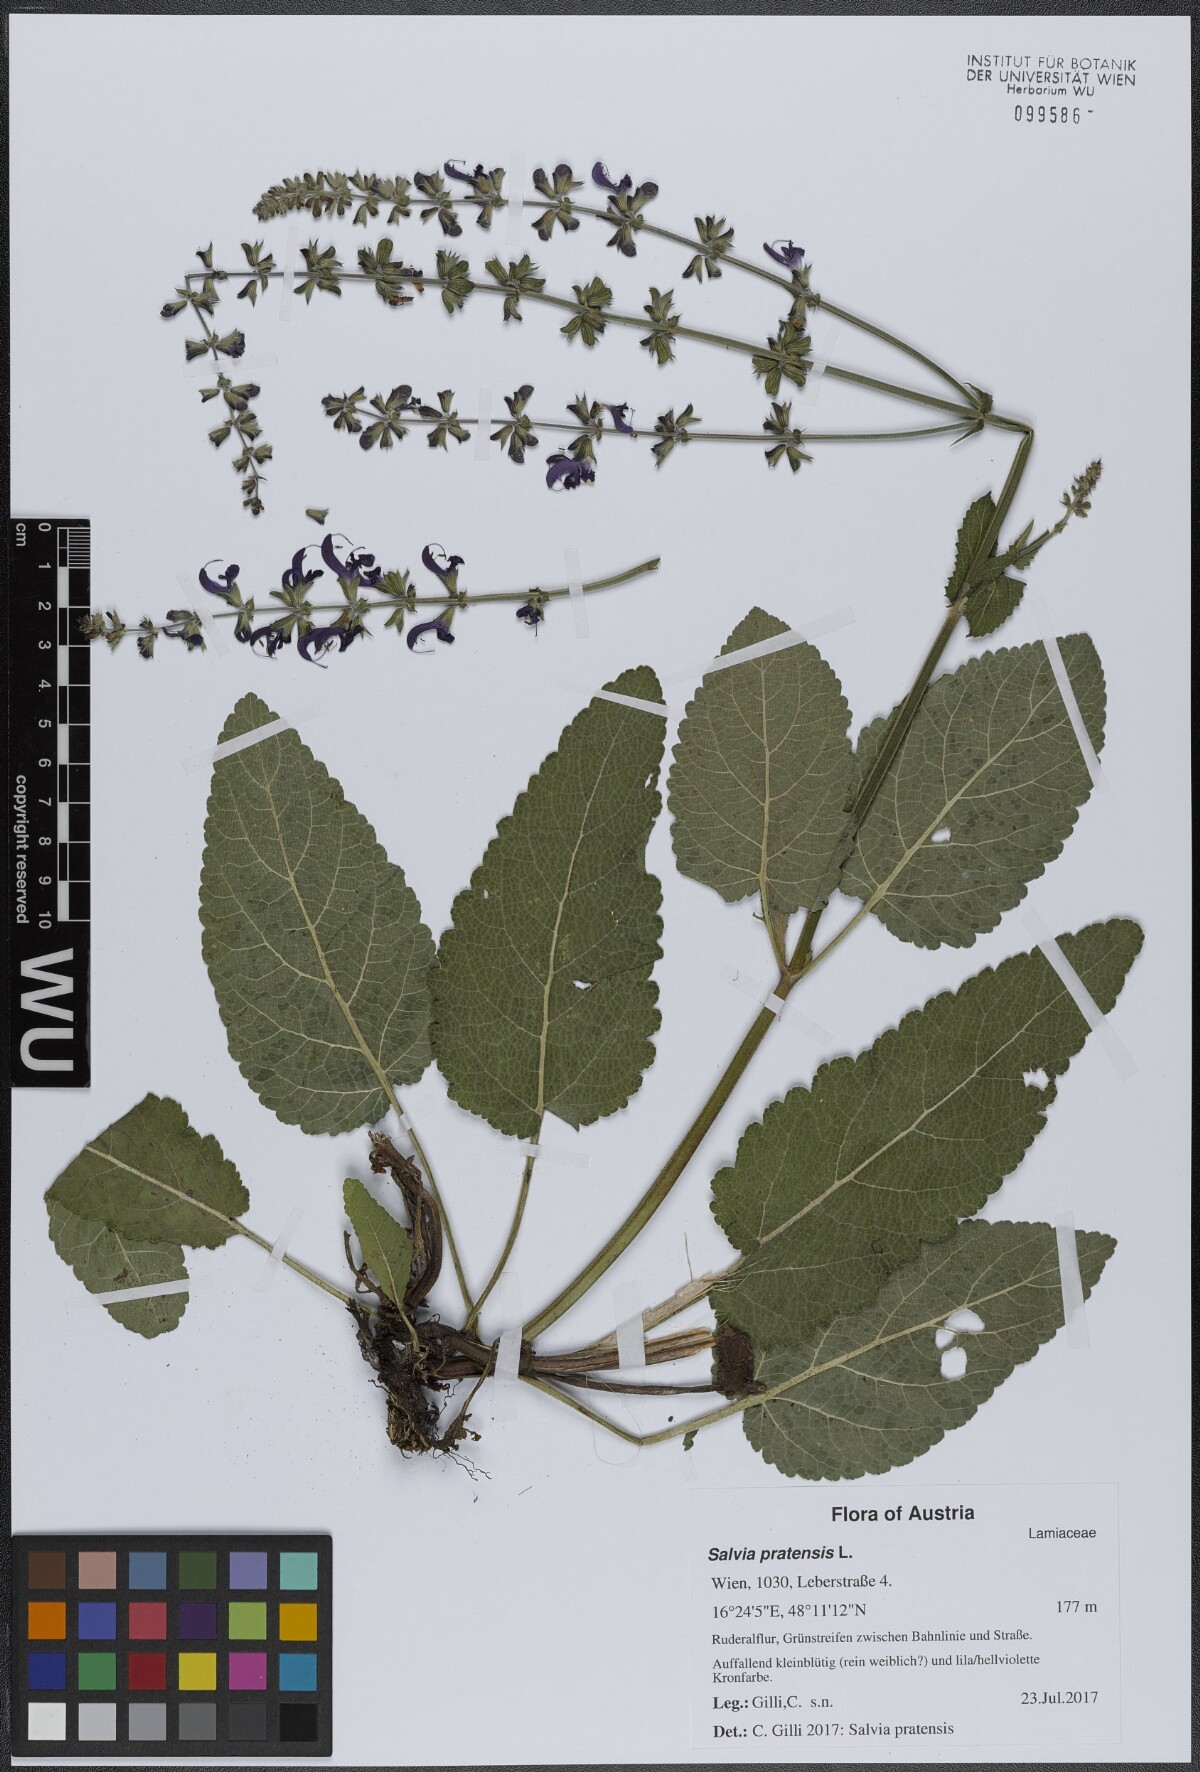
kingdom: Plantae
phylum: Tracheophyta
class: Magnoliopsida
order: Lamiales
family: Lamiaceae
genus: Salvia
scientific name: Salvia pratensis
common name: Meadow sage
